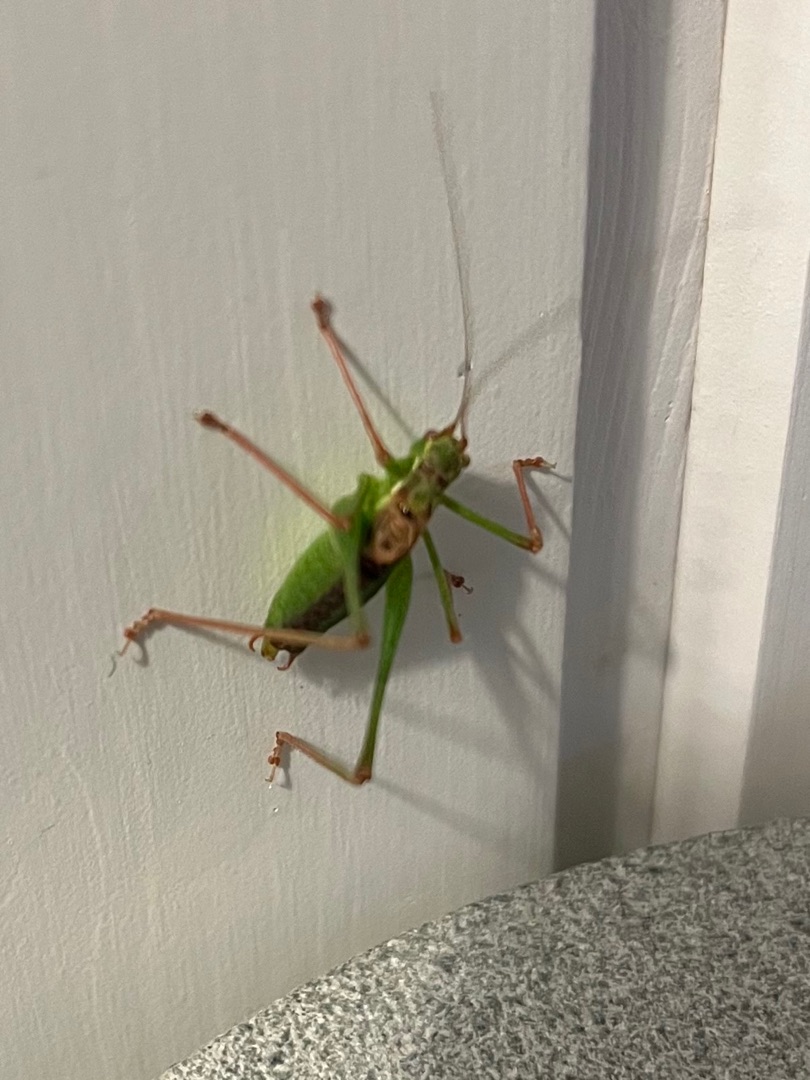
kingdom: Animalia
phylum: Arthropoda
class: Insecta
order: Orthoptera
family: Tettigoniidae
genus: Leptophyes
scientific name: Leptophyes punctatissima
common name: Krumknivgræshoppe
